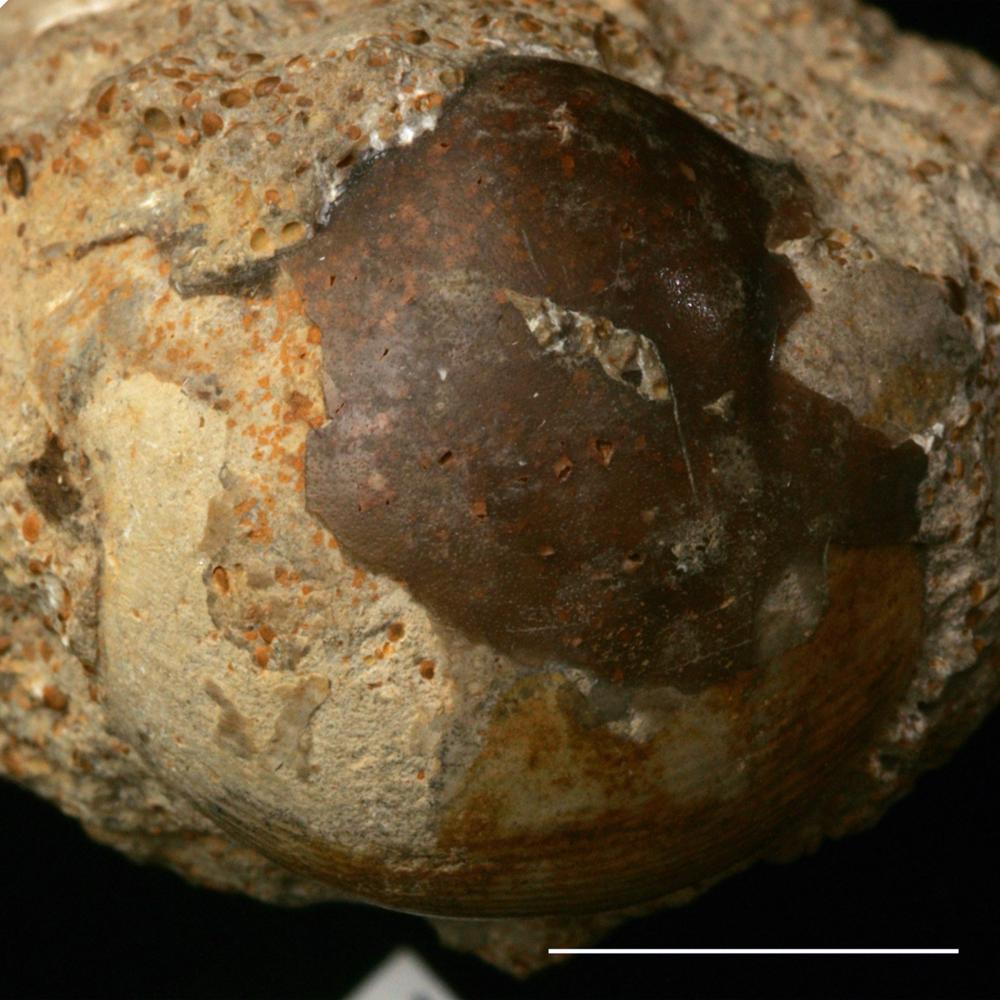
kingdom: Animalia
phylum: Arthropoda
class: Trilobita
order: Corynexochida
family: Illaenidae
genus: Illaenus
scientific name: Illaenus
